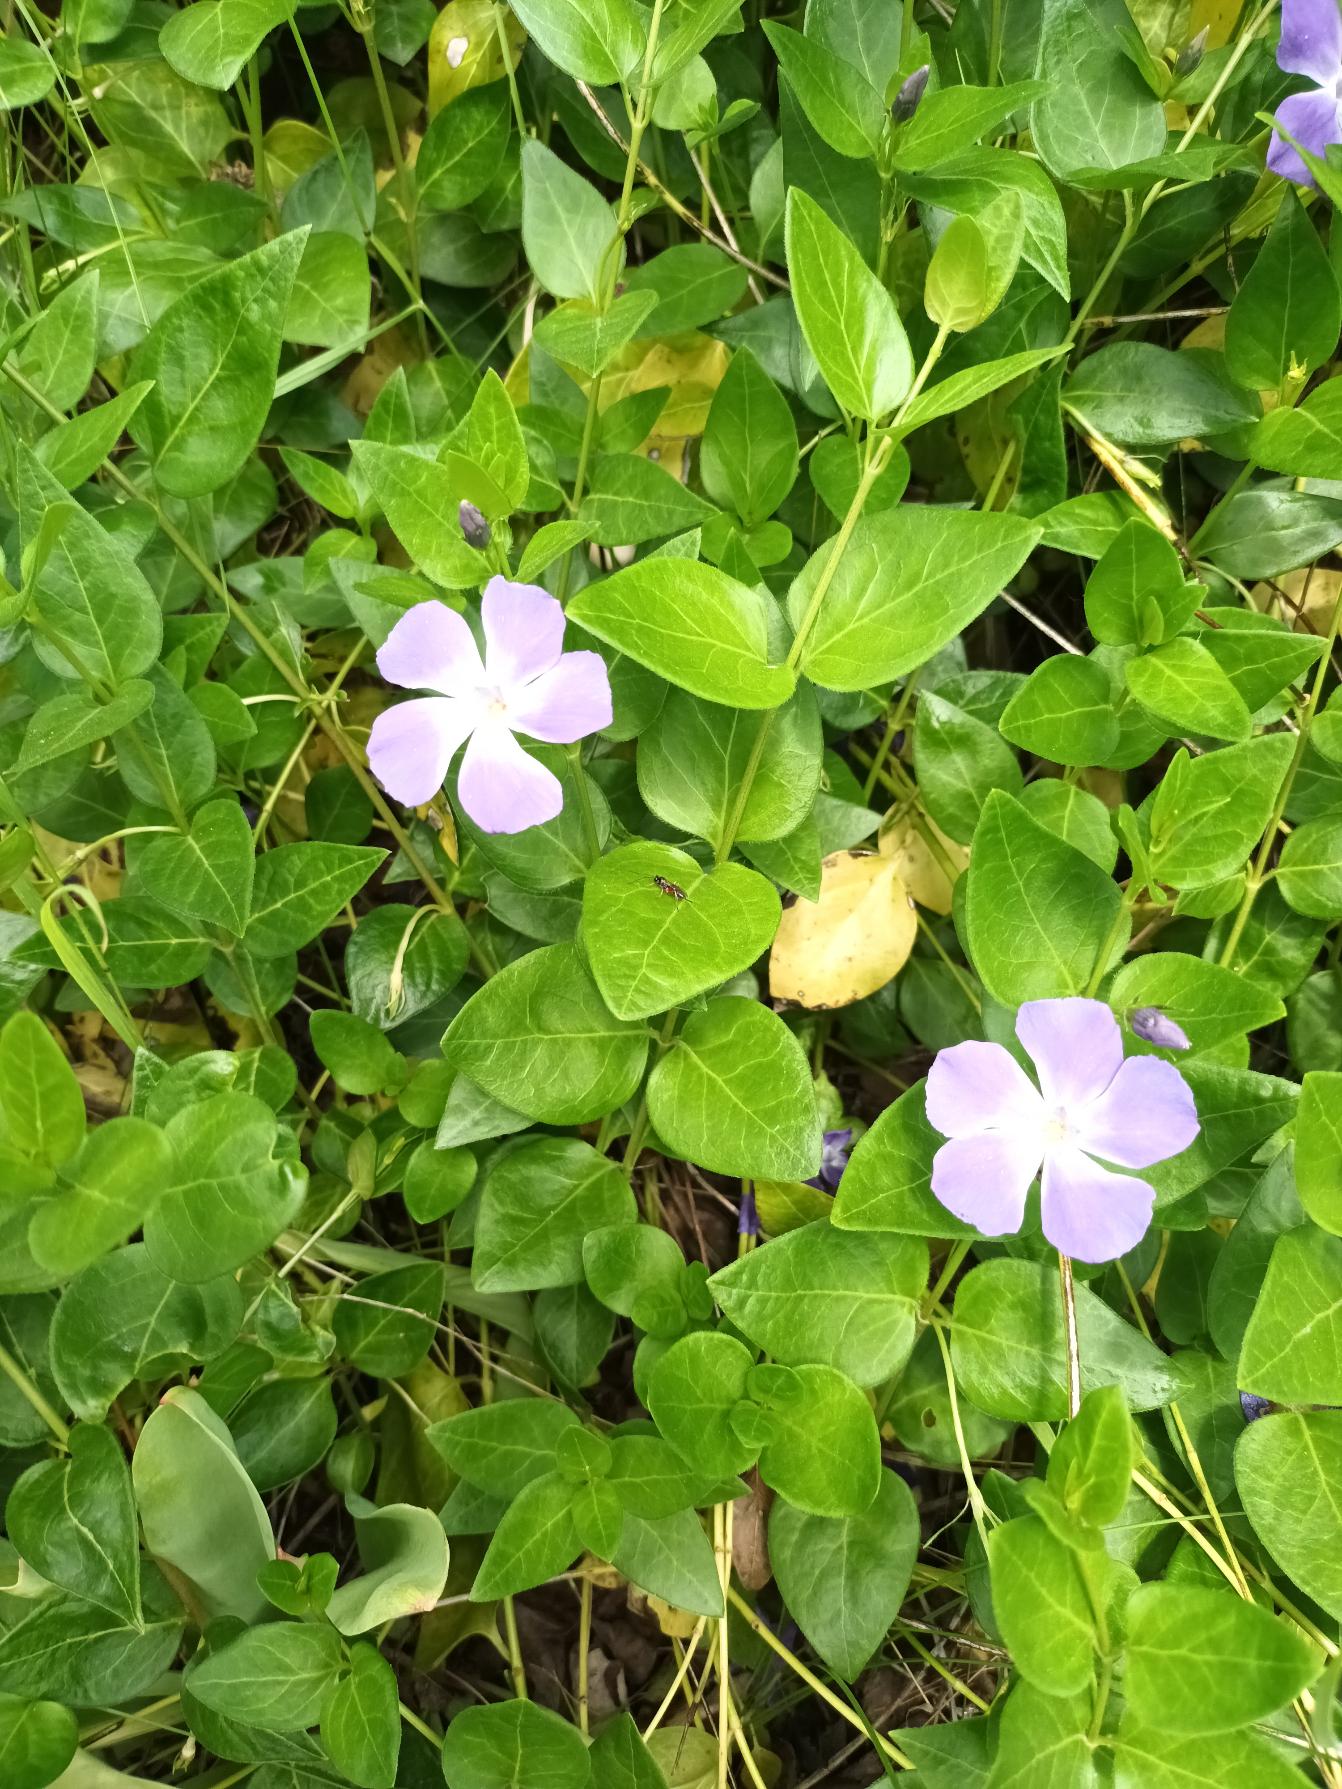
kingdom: Plantae
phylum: Tracheophyta
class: Magnoliopsida
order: Gentianales
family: Apocynaceae
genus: Vinca
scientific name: Vinca major
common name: Stor singrøn
